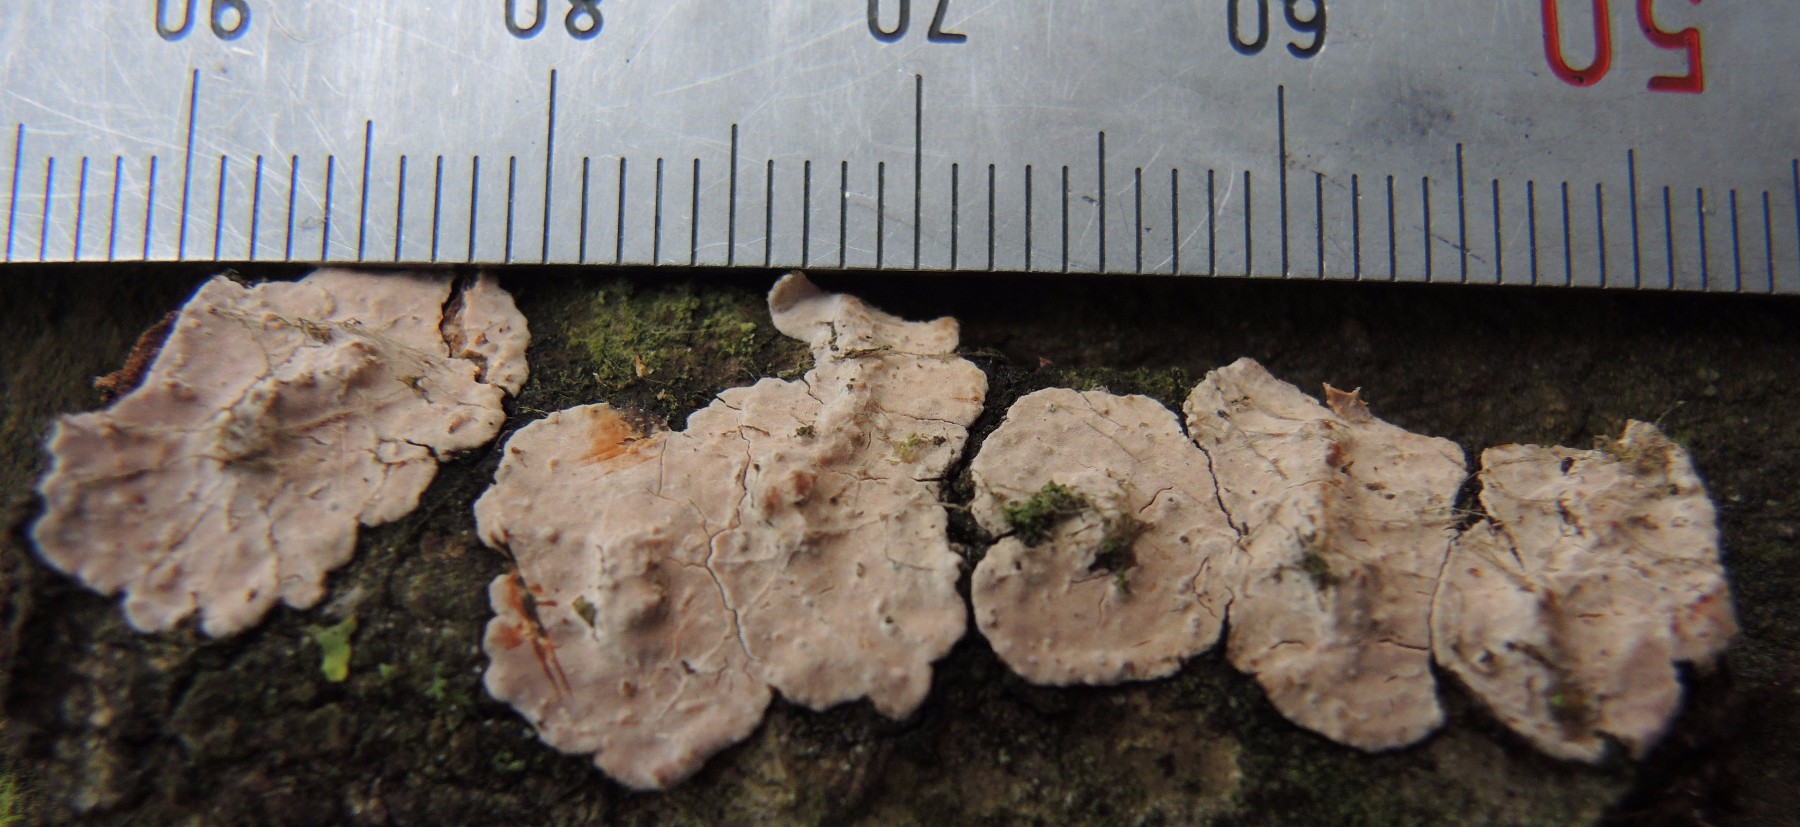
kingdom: Fungi
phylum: Basidiomycota
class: Agaricomycetes
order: Russulales
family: Peniophoraceae
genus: Peniophora
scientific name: Peniophora polygonia
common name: polygon-voksskind
